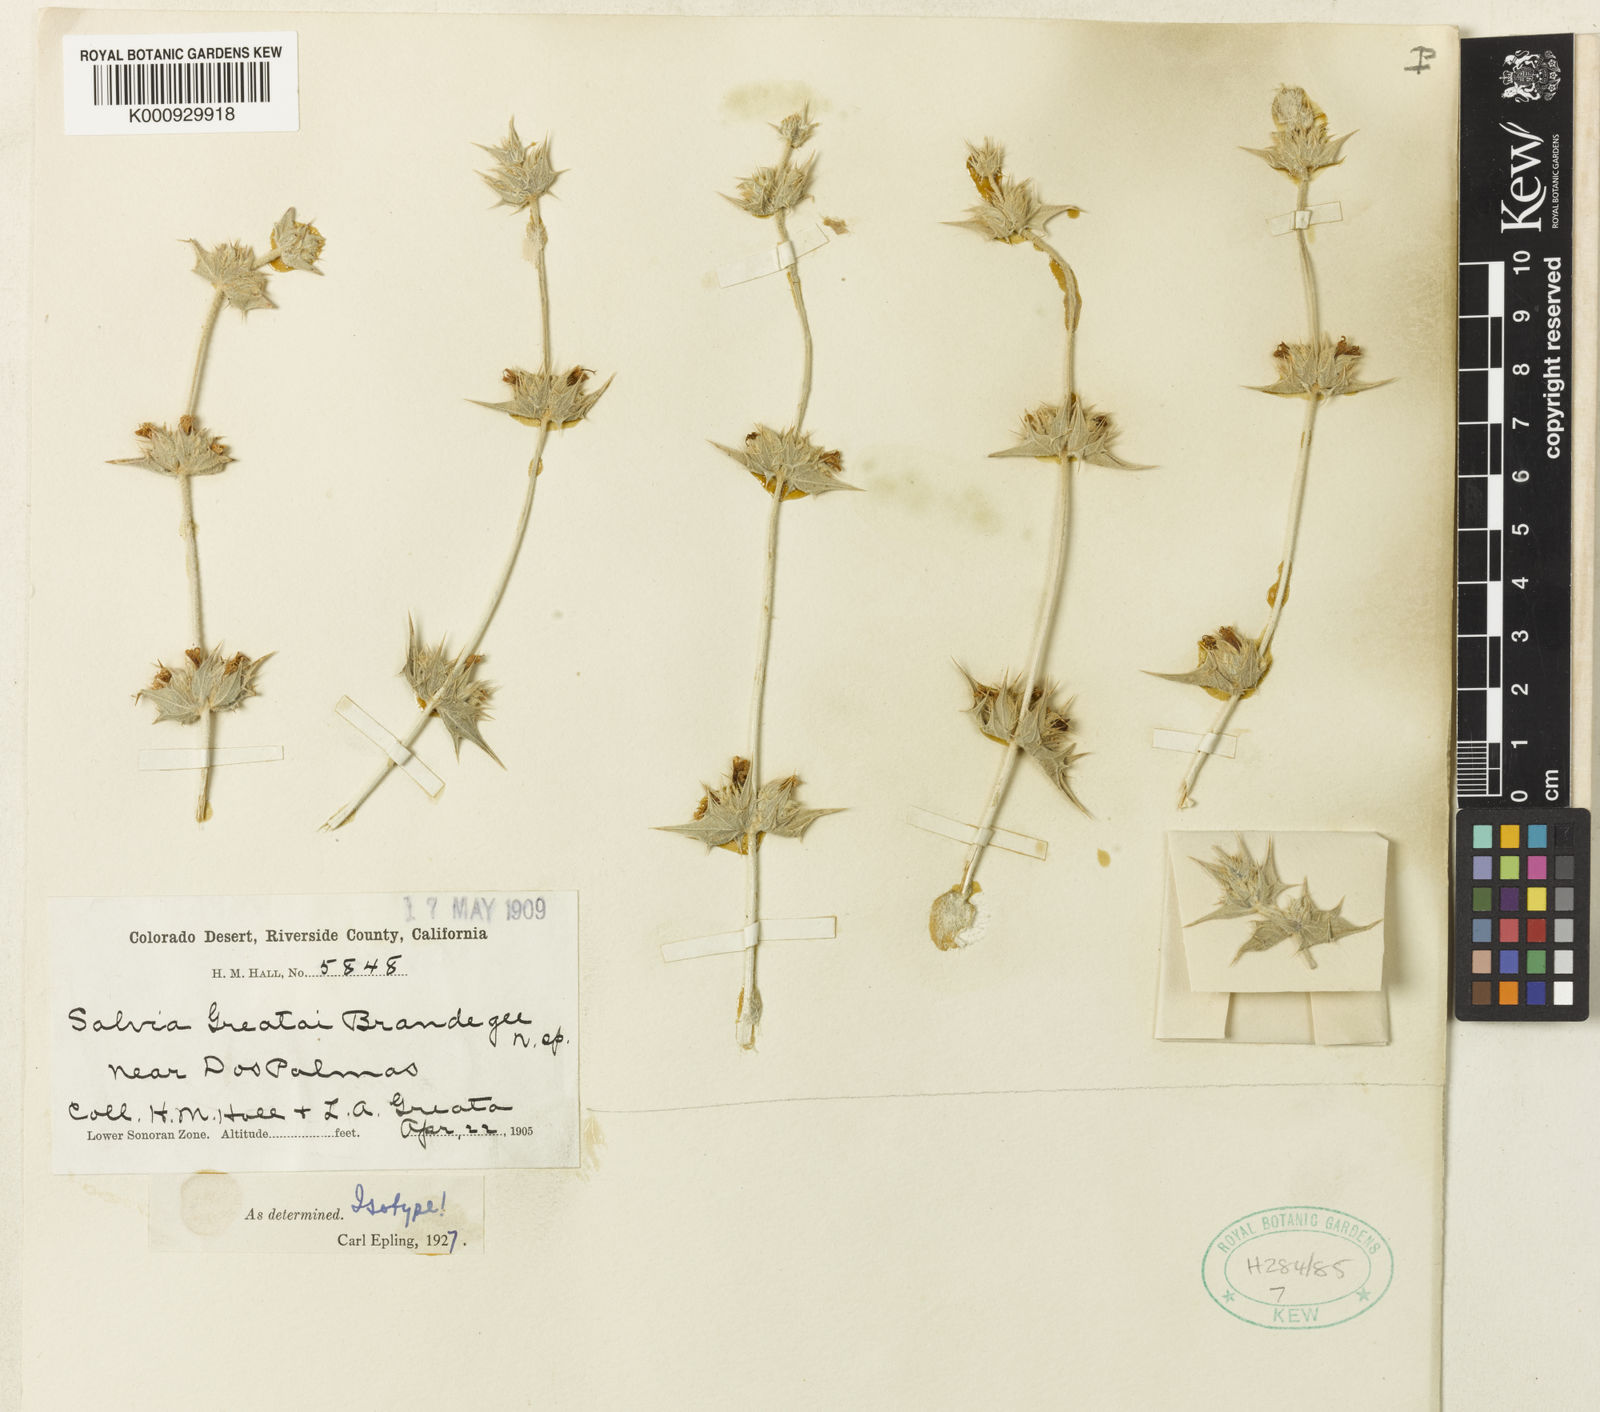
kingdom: Plantae
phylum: Tracheophyta
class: Magnoliopsida
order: Lamiales
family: Lamiaceae
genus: Salvia
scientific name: Salvia greatae
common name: Orocopia sage
